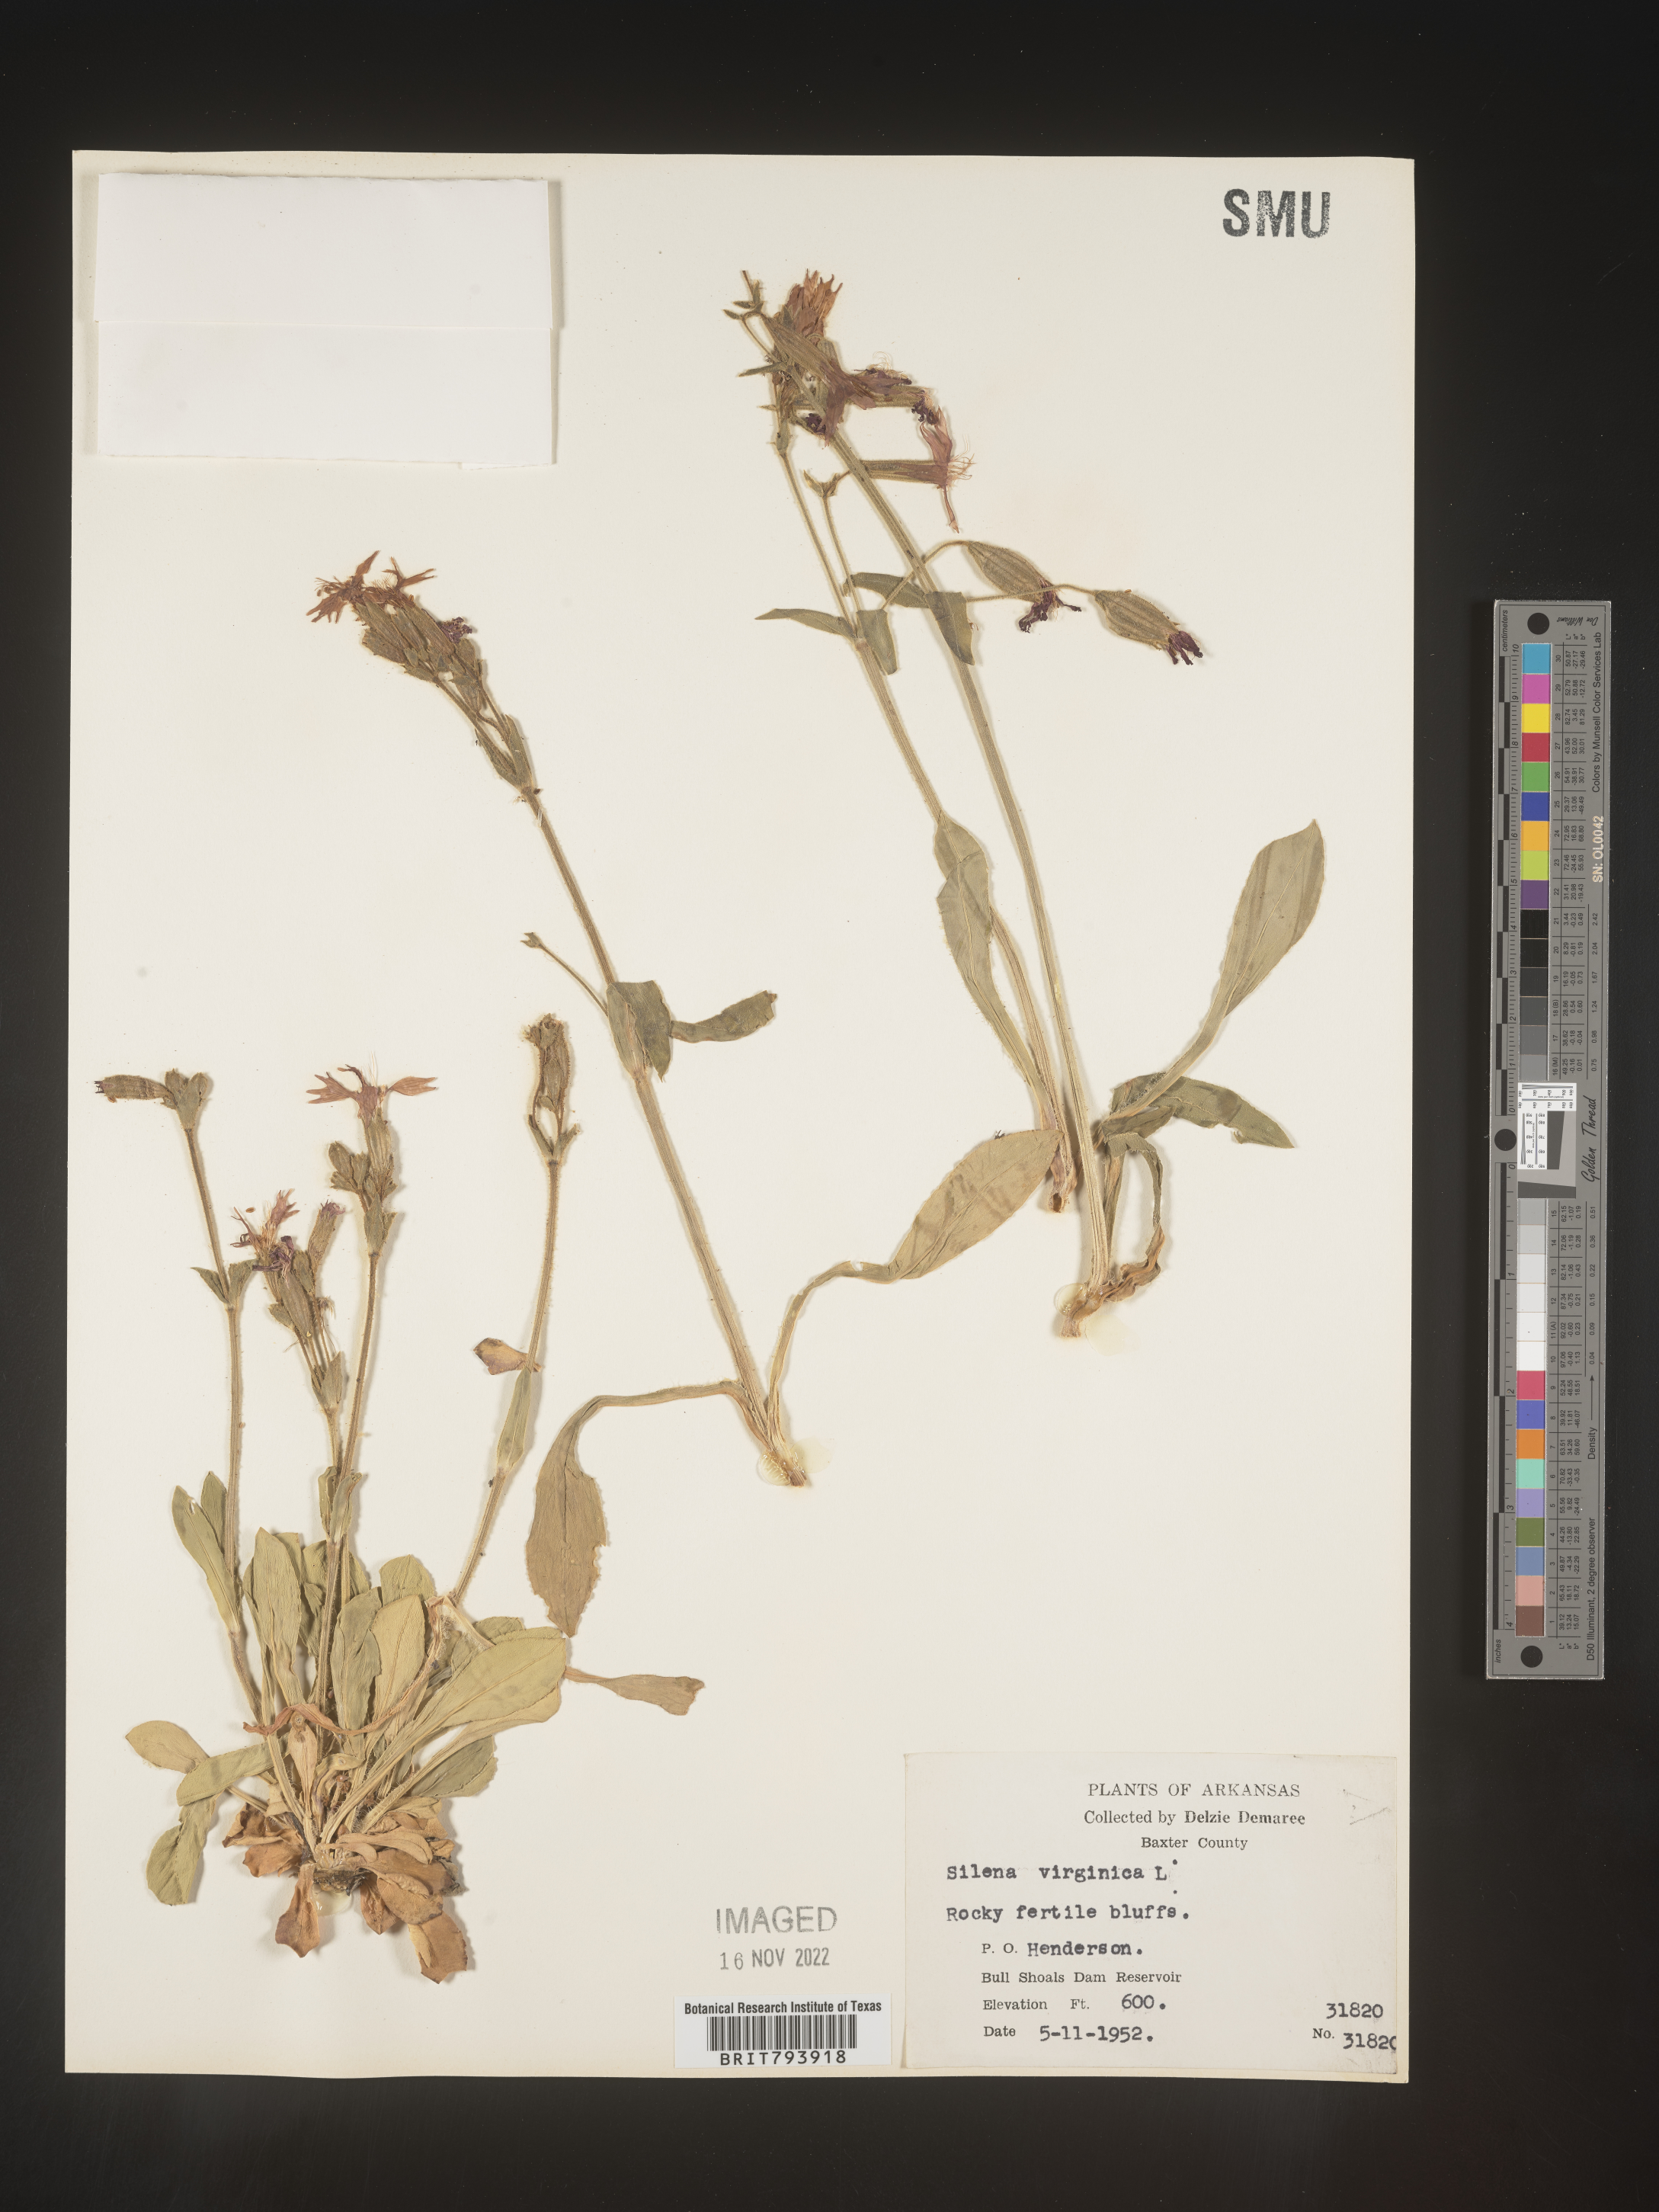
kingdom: Plantae
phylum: Tracheophyta
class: Magnoliopsida
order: Caryophyllales
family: Caryophyllaceae
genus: Silene
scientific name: Silene virginica
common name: Fire-pink
